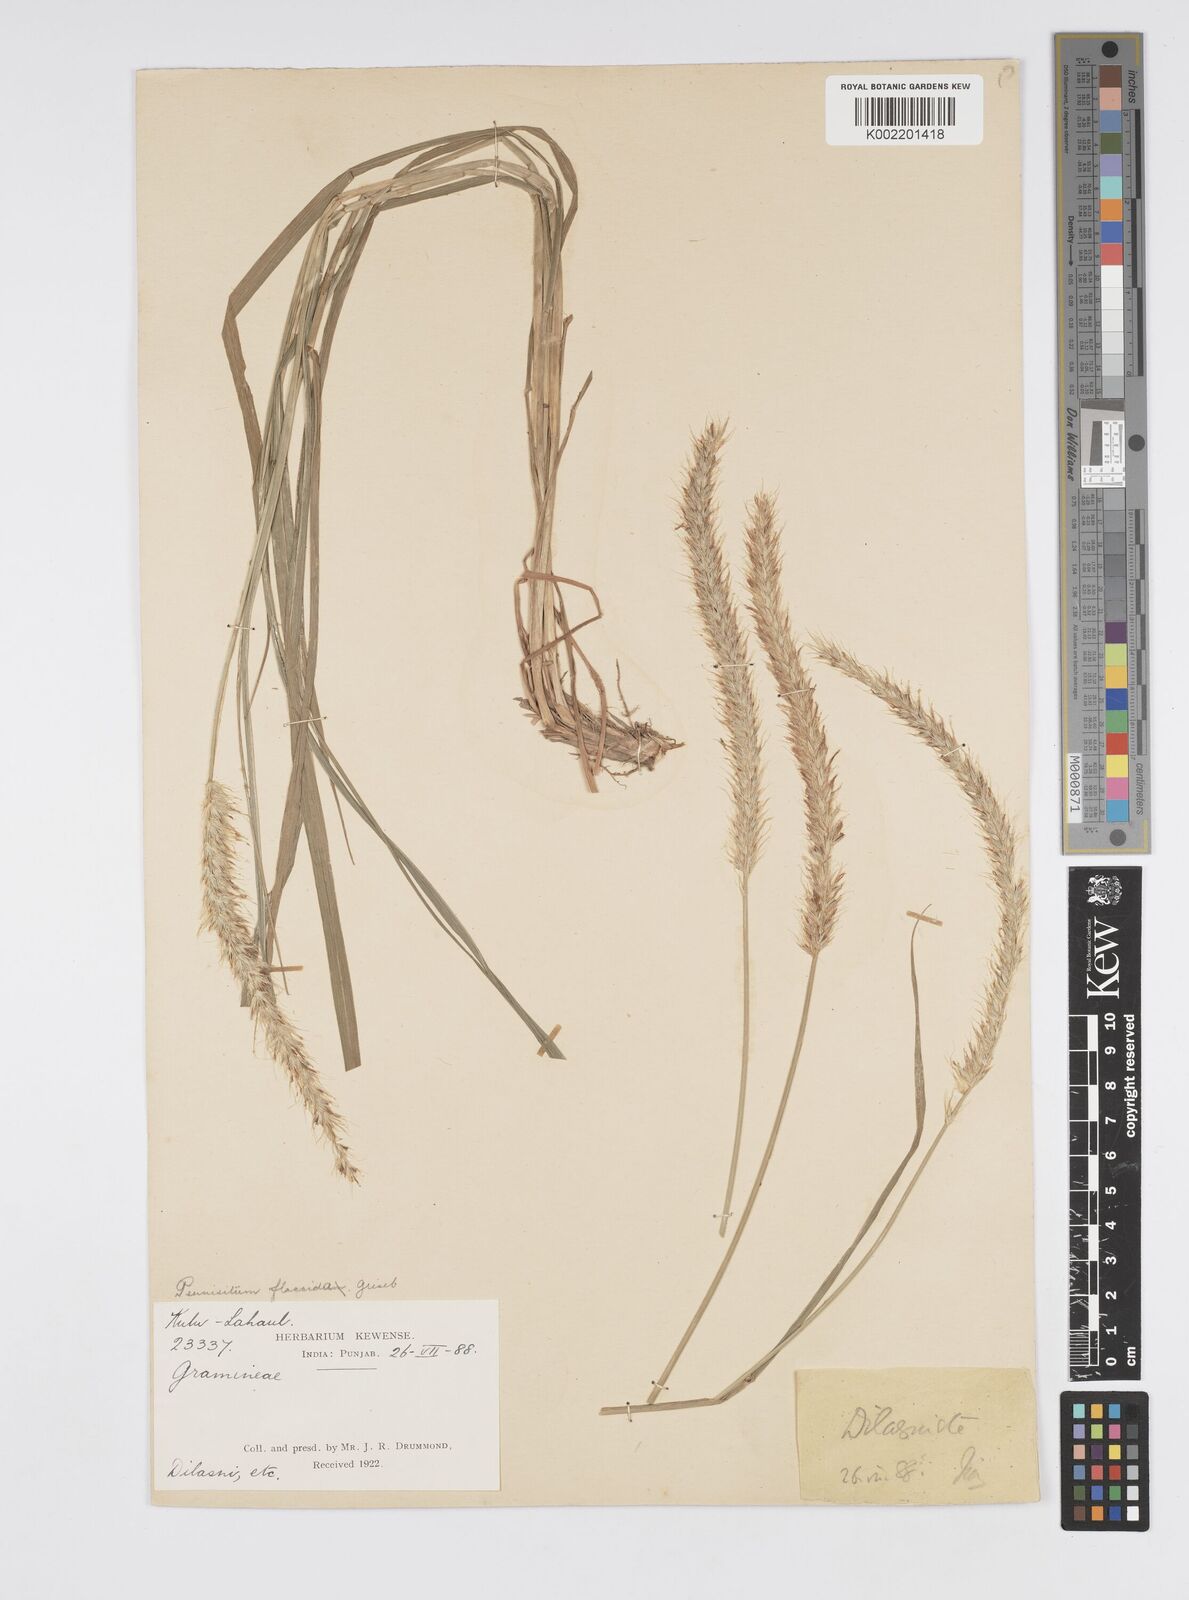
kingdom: Plantae
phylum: Tracheophyta
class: Liliopsida
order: Poales
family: Poaceae
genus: Cenchrus
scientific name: Cenchrus flaccidus
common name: Flaccid grass
